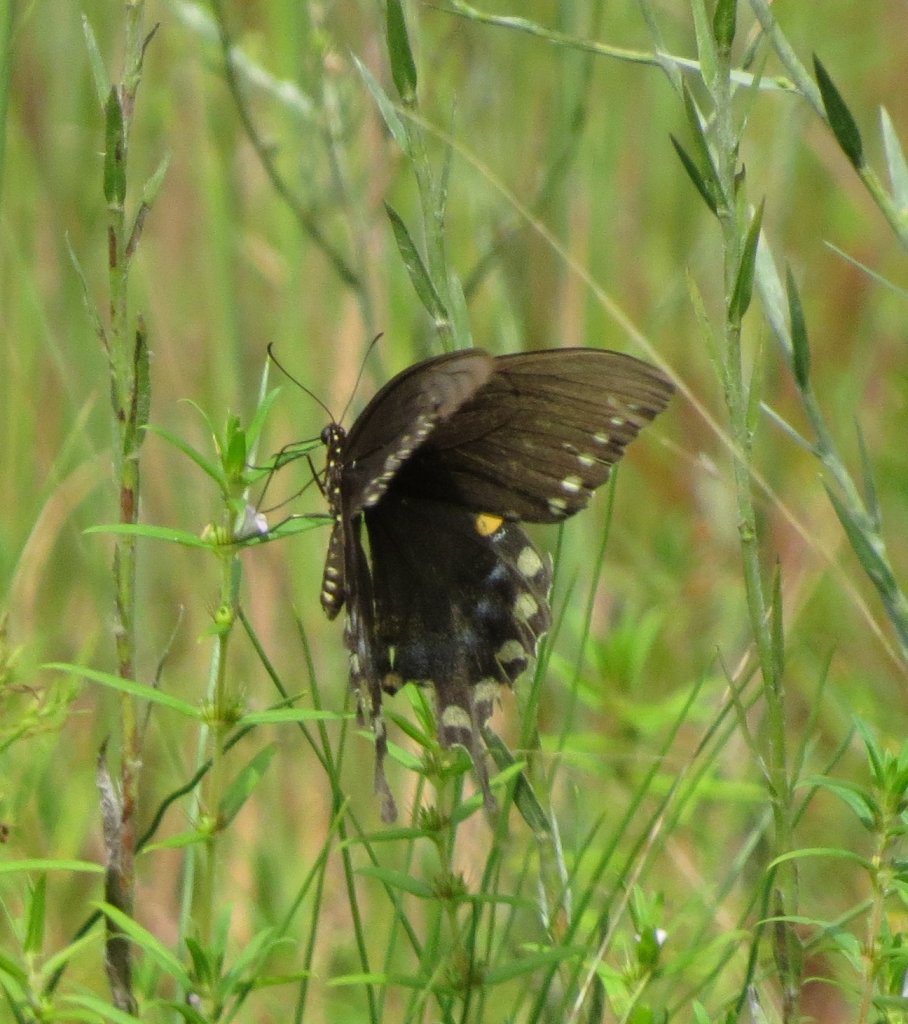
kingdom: Animalia
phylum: Arthropoda
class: Insecta
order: Lepidoptera
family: Papilionidae
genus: Pterourus
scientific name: Pterourus troilus
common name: Spicebush Swallowtail
